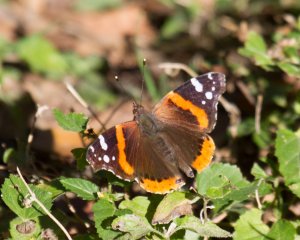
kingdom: Animalia
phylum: Arthropoda
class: Insecta
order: Lepidoptera
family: Nymphalidae
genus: Vanessa
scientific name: Vanessa atalanta
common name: Red Admiral
